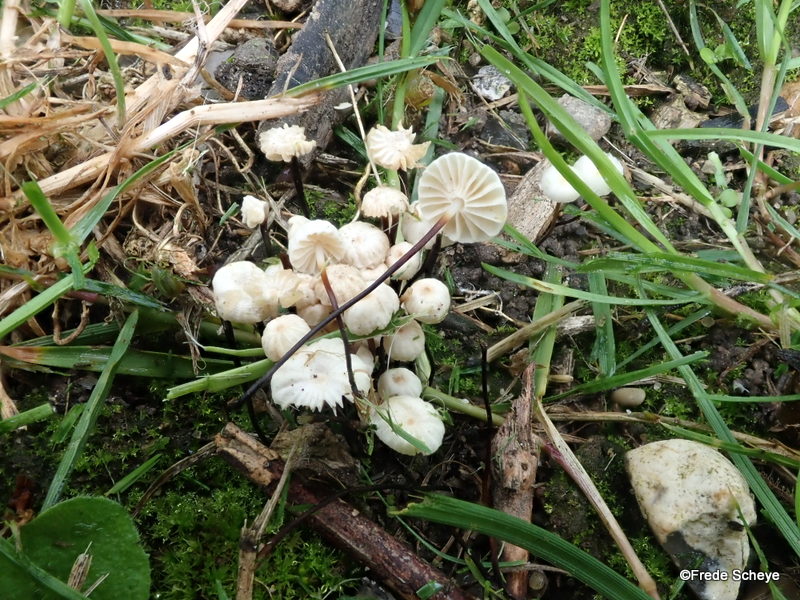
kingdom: Fungi
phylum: Basidiomycota
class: Agaricomycetes
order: Agaricales
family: Marasmiaceae
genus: Marasmius
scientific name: Marasmius rotula
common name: hjul-bruskhat
